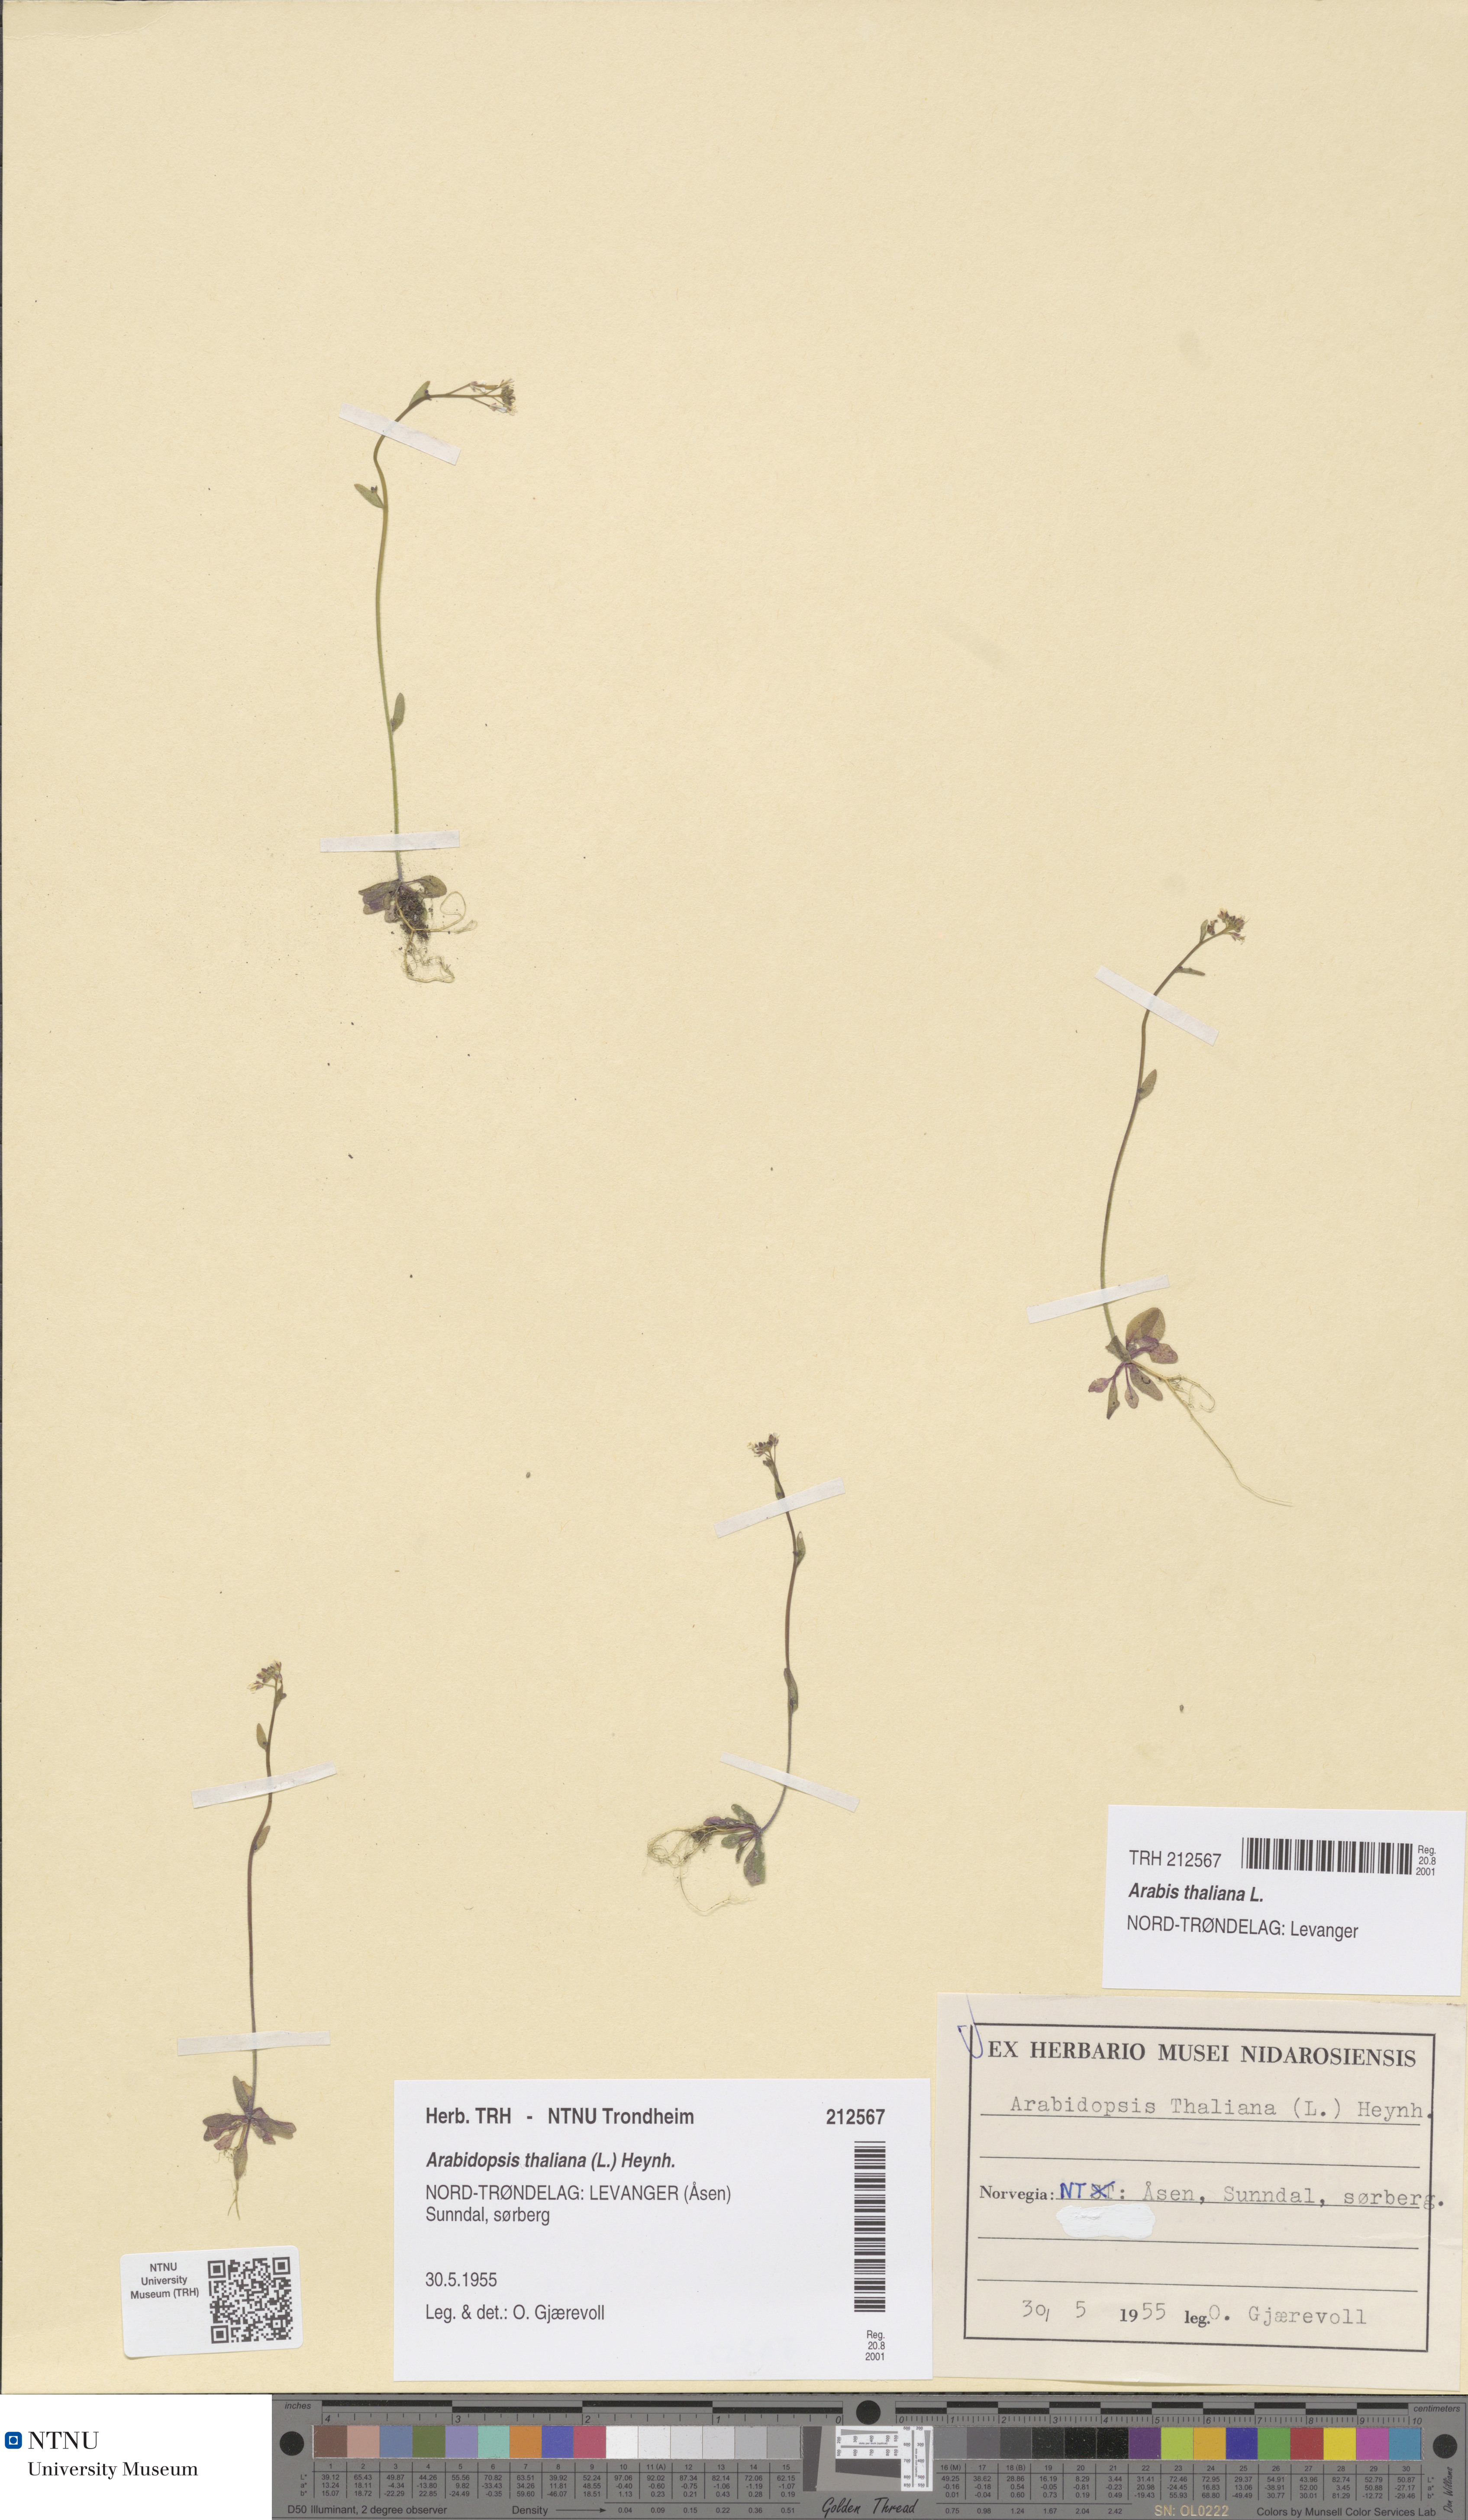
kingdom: Plantae
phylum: Tracheophyta
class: Magnoliopsida
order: Brassicales
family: Brassicaceae
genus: Arabidopsis
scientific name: Arabidopsis thaliana
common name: Thale cress
